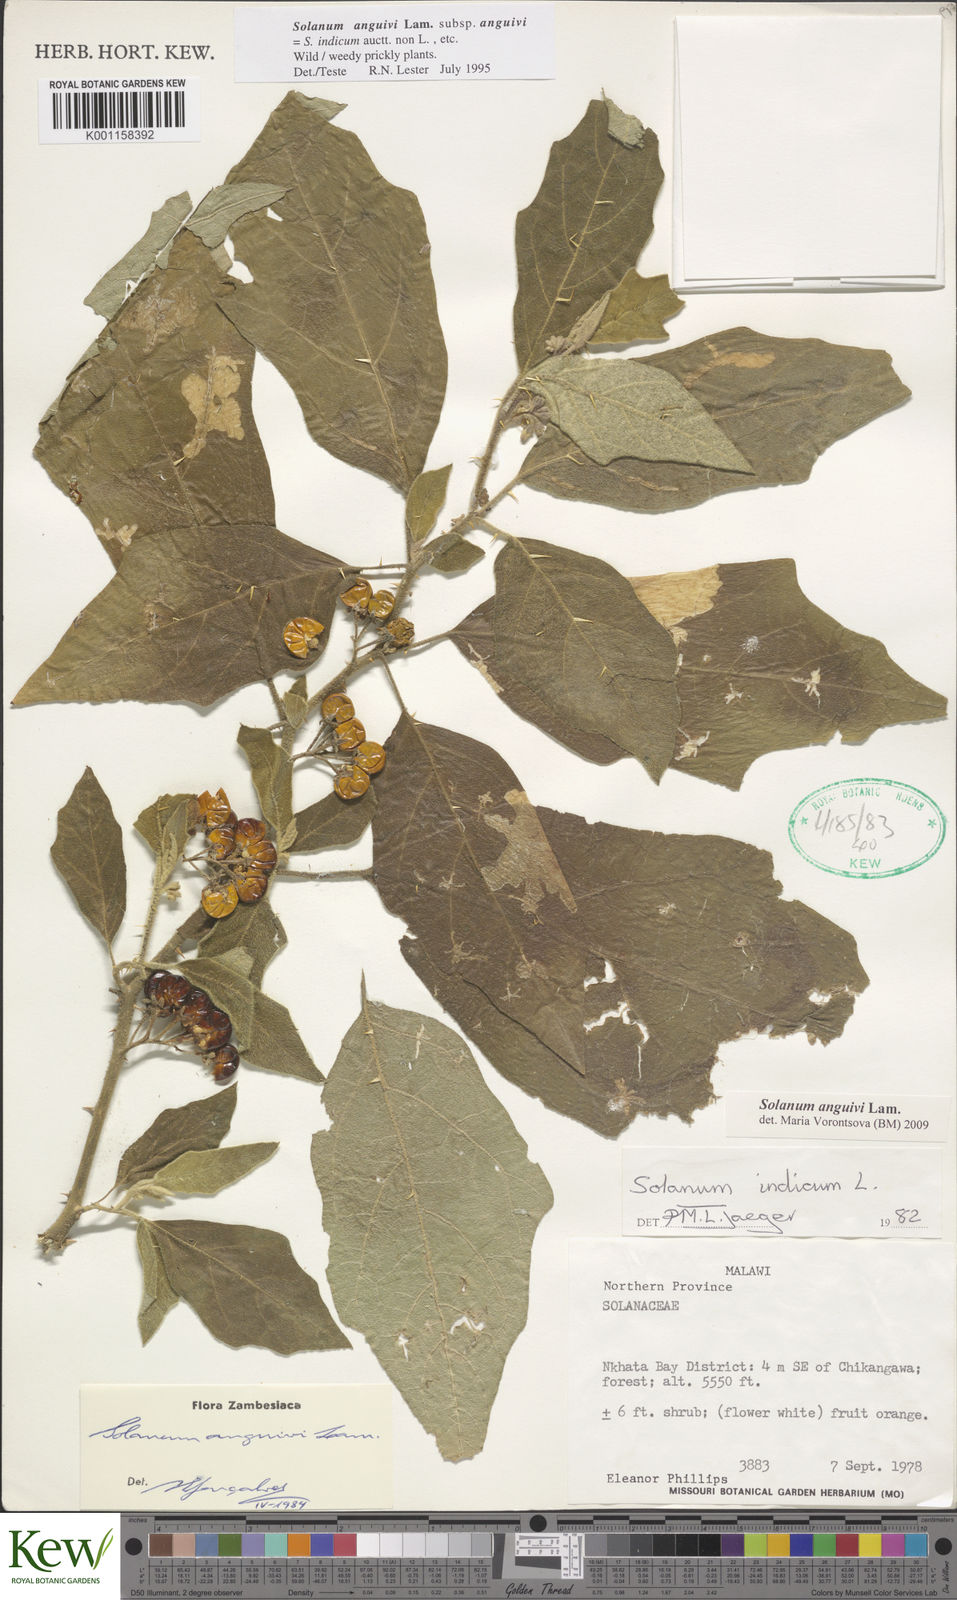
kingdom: Plantae
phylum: Tracheophyta
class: Magnoliopsida
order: Solanales
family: Solanaceae
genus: Solanum
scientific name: Solanum anguivi
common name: Forest bitterberry
